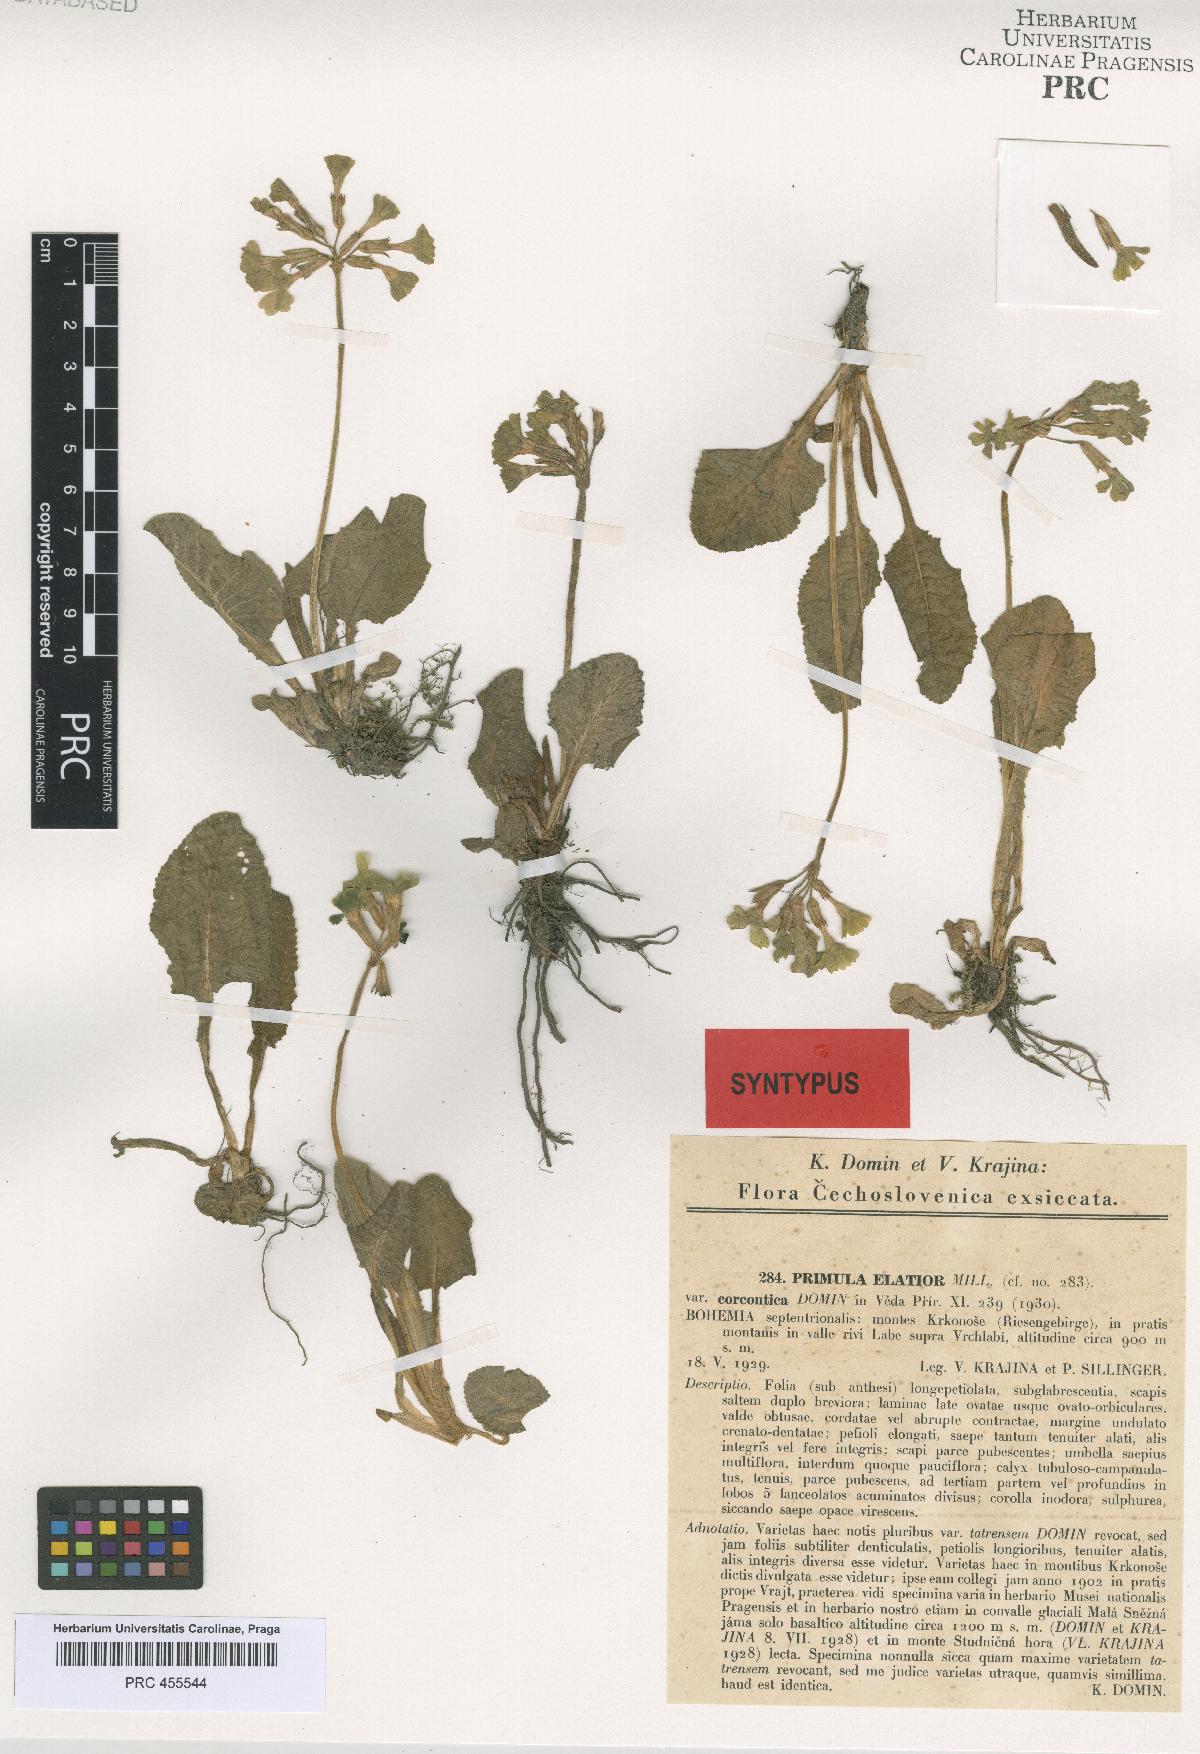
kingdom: Plantae
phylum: Tracheophyta
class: Magnoliopsida
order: Ericales
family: Primulaceae
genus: Primula
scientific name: Primula elatior
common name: Oxlip
